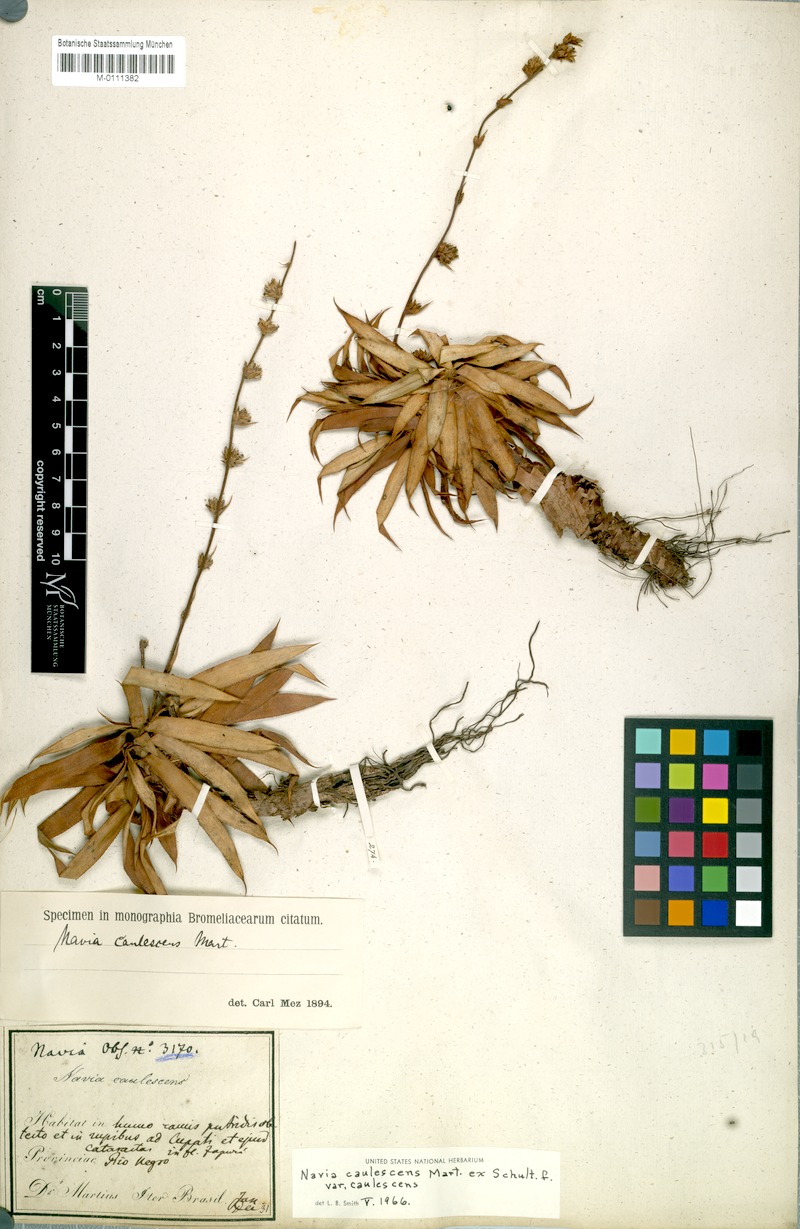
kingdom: Plantae
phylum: Tracheophyta
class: Liliopsida
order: Poales
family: Bromeliaceae
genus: Navia
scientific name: Navia caulescens
